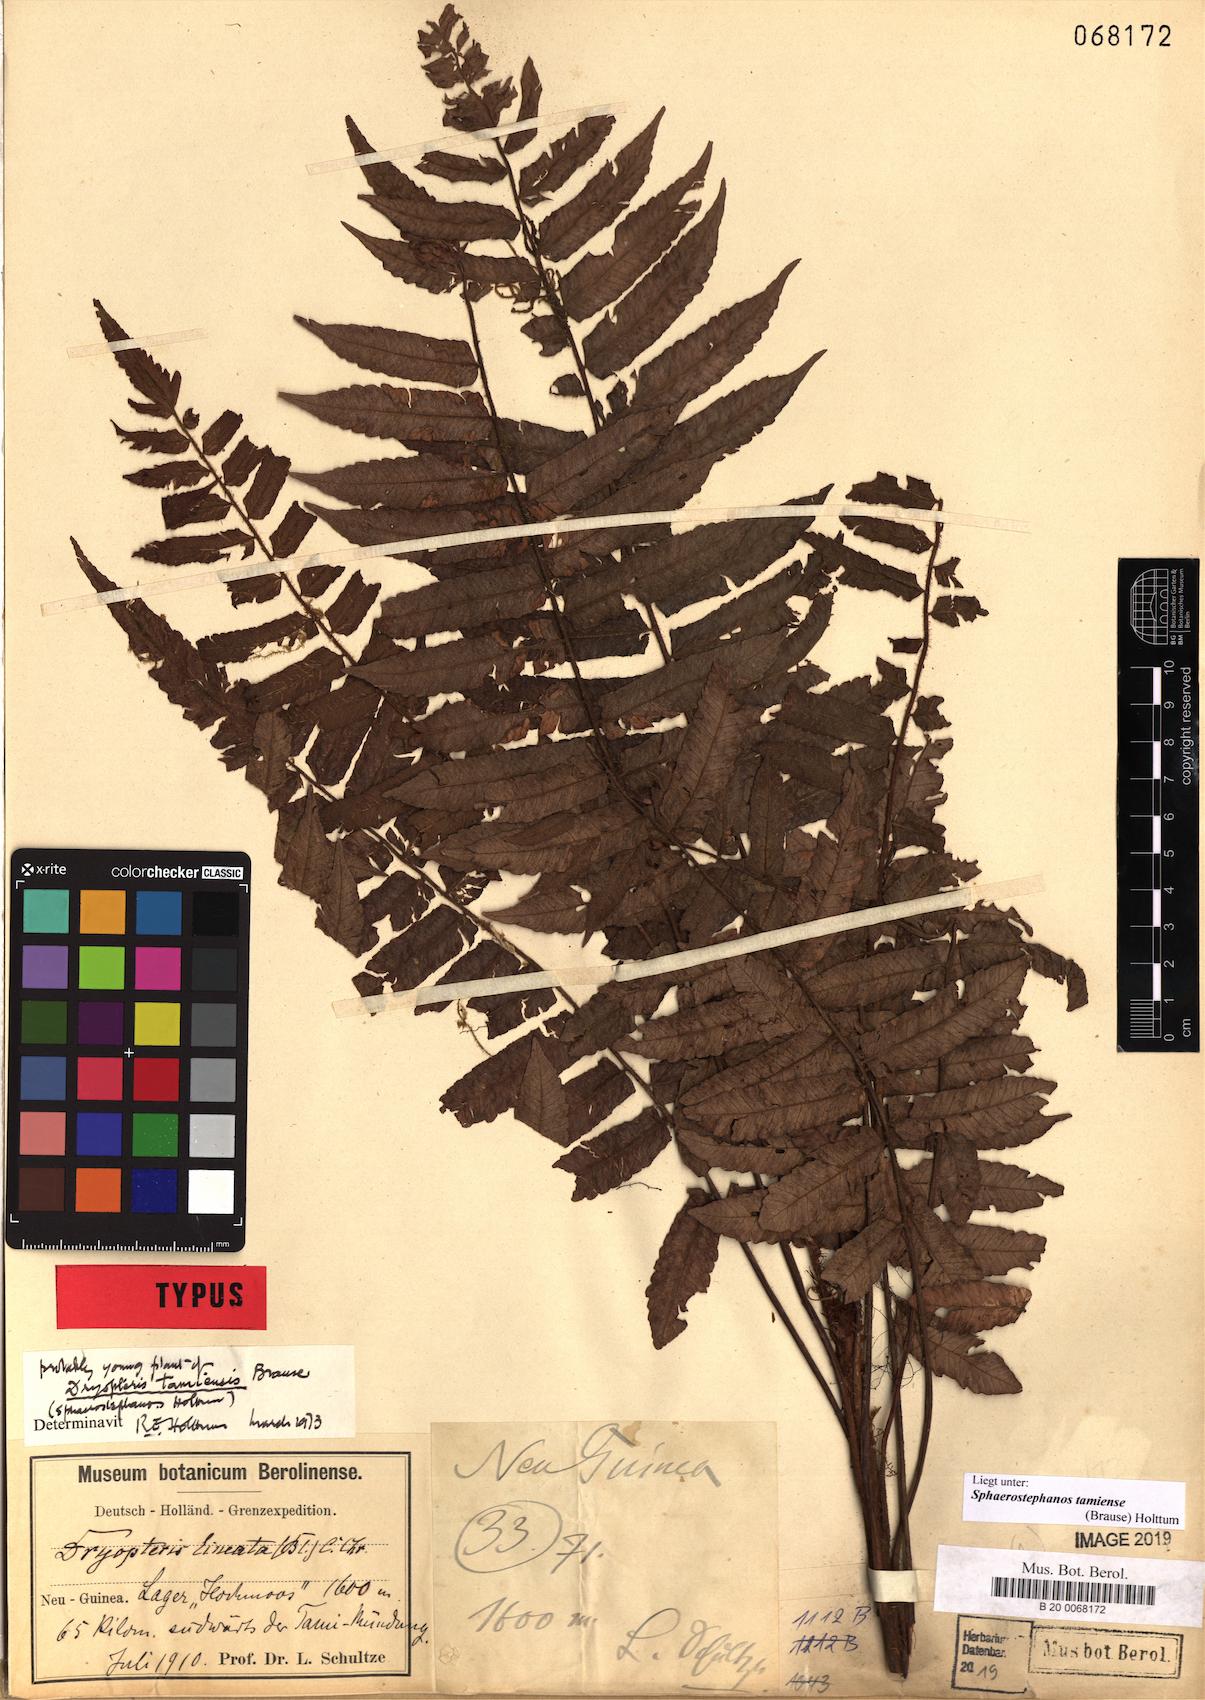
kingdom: Plantae
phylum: Tracheophyta
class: Polypodiopsida
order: Polypodiales
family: Thelypteridaceae
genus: Sphaerostephanos
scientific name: Sphaerostephanos tamiensis
